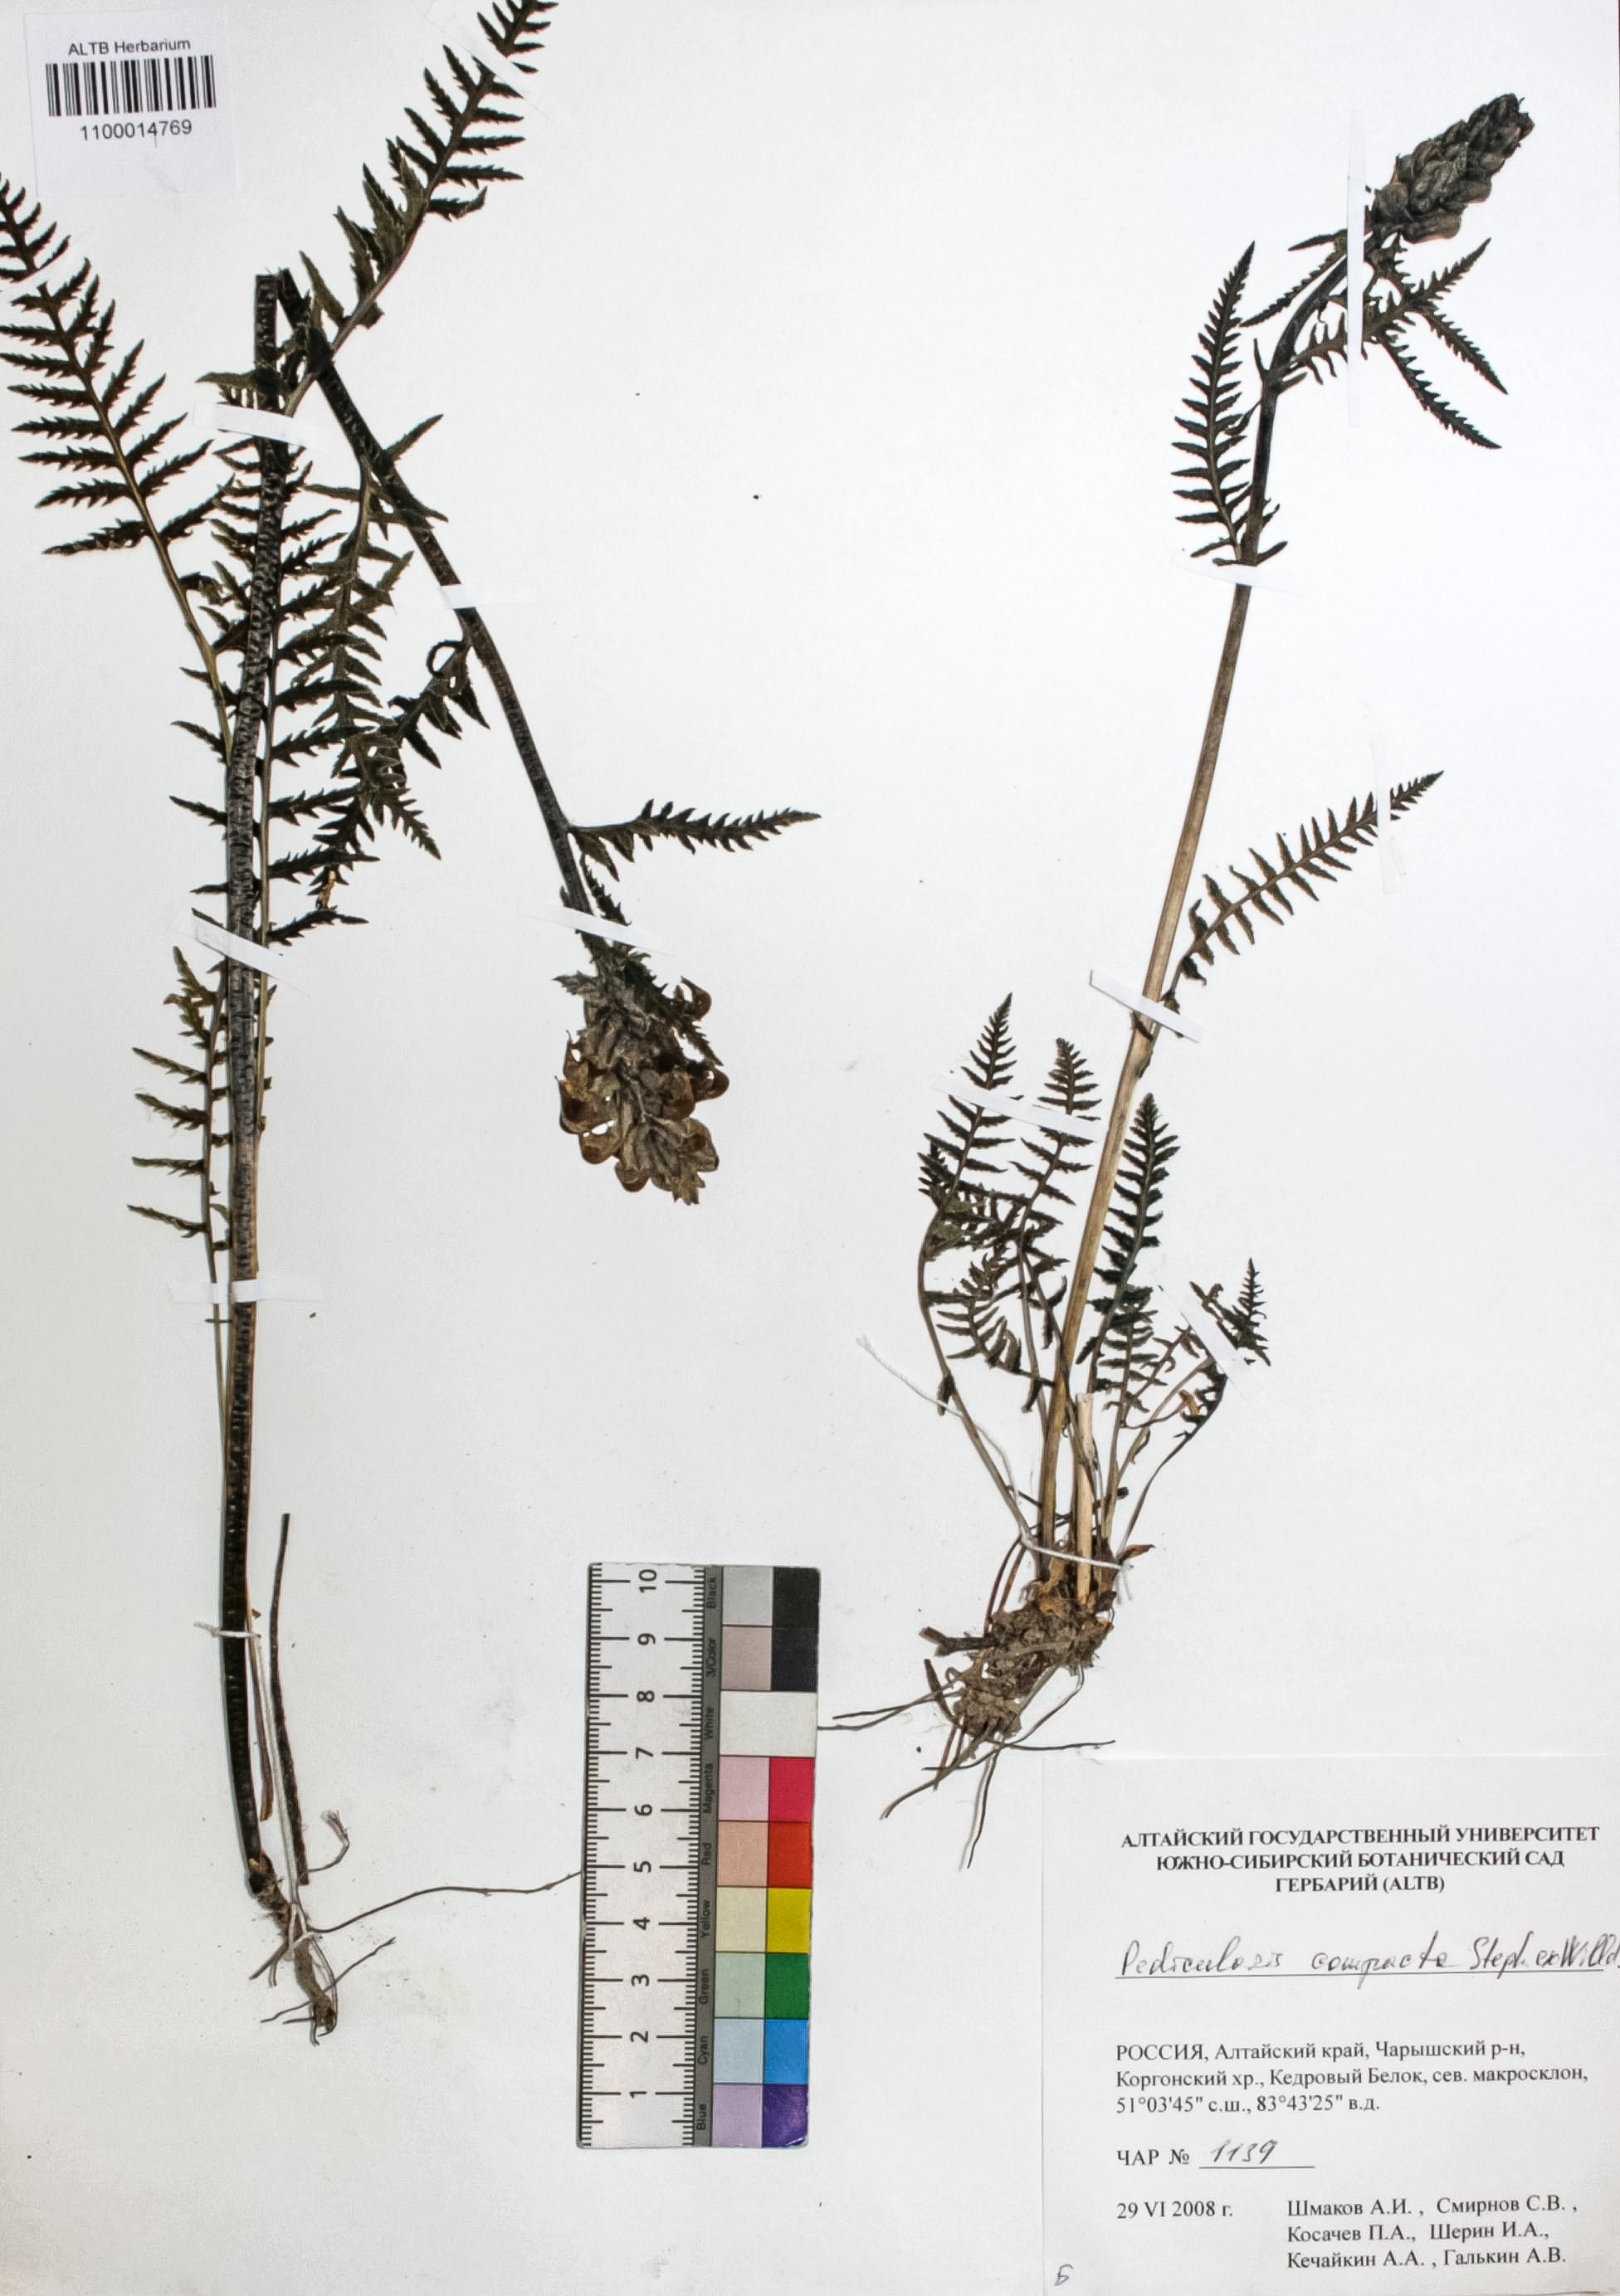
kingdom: Plantae
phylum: Tracheophyta
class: Magnoliopsida
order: Lamiales
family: Orobanchaceae
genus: Pedicularis
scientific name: Pedicularis compacta
